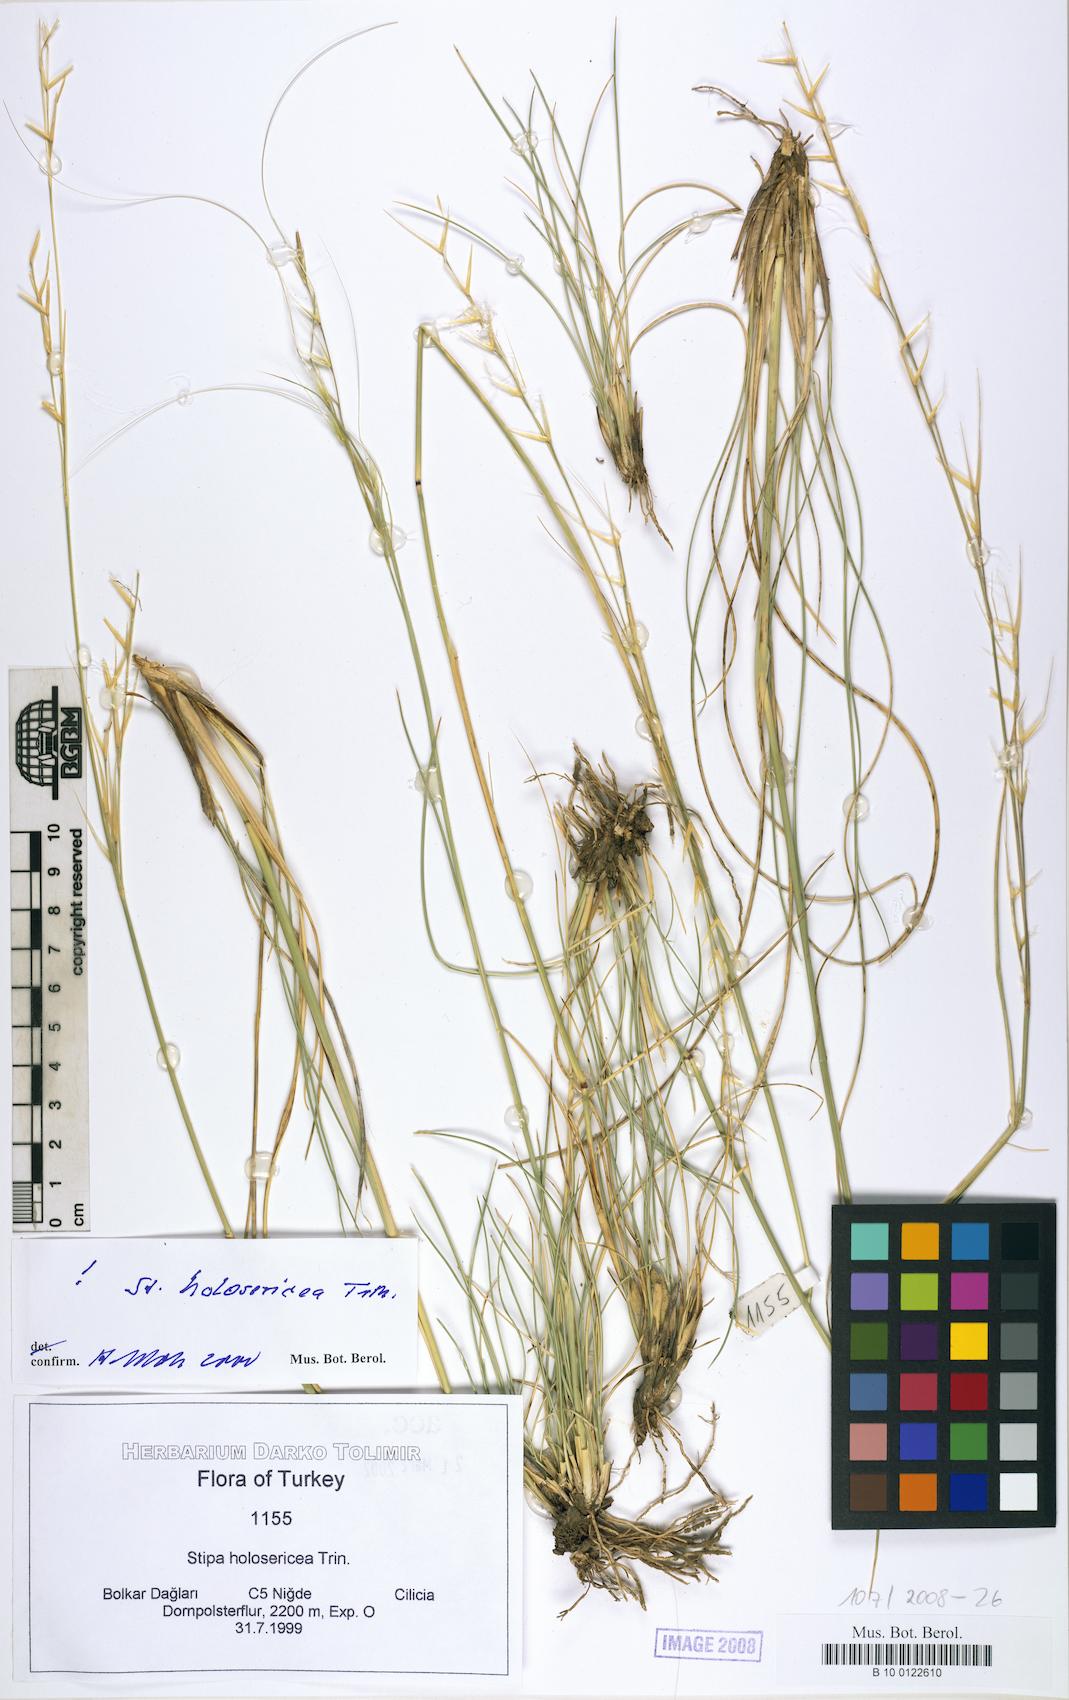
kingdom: Plantae
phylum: Tracheophyta
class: Liliopsida
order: Poales
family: Poaceae
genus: Stipa
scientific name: Stipa holosericea
